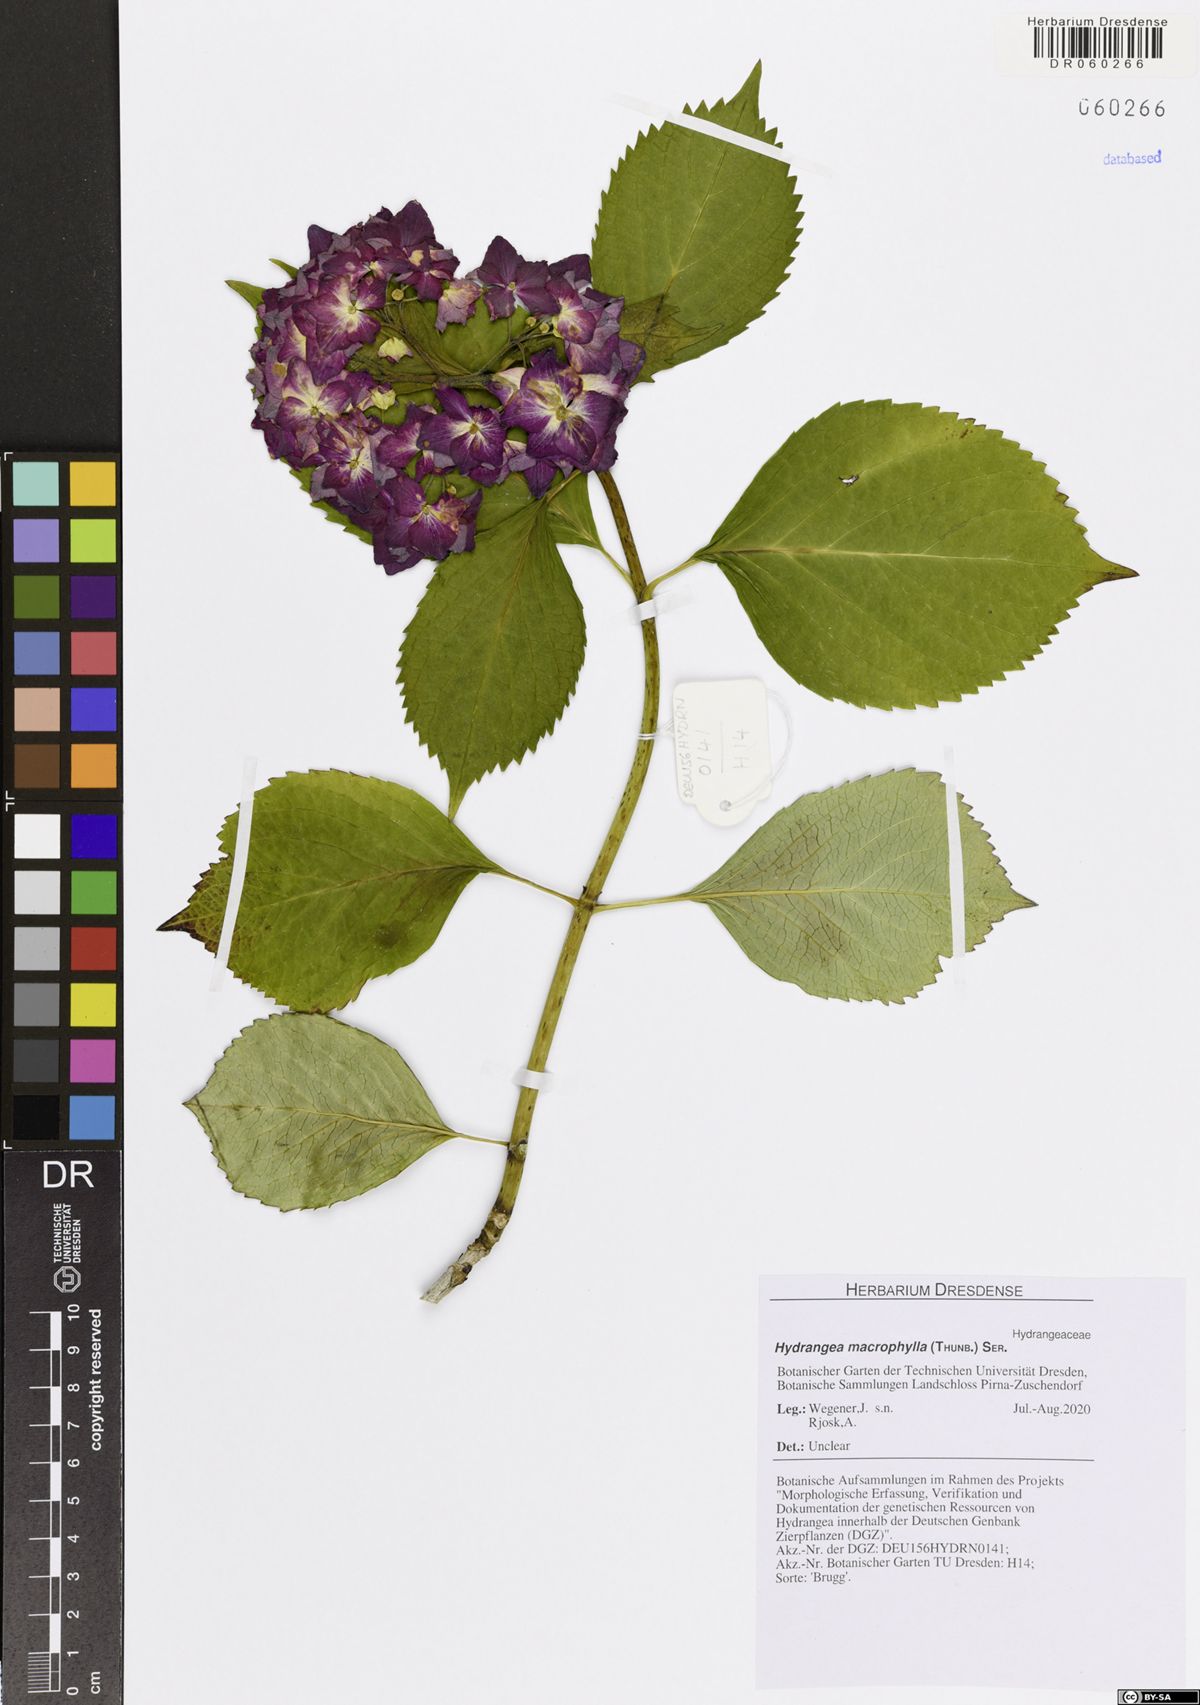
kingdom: Plantae
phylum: Tracheophyta
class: Magnoliopsida
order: Cornales
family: Hydrangeaceae
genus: Hydrangea
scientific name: Hydrangea macrophylla
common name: Hydrangea
